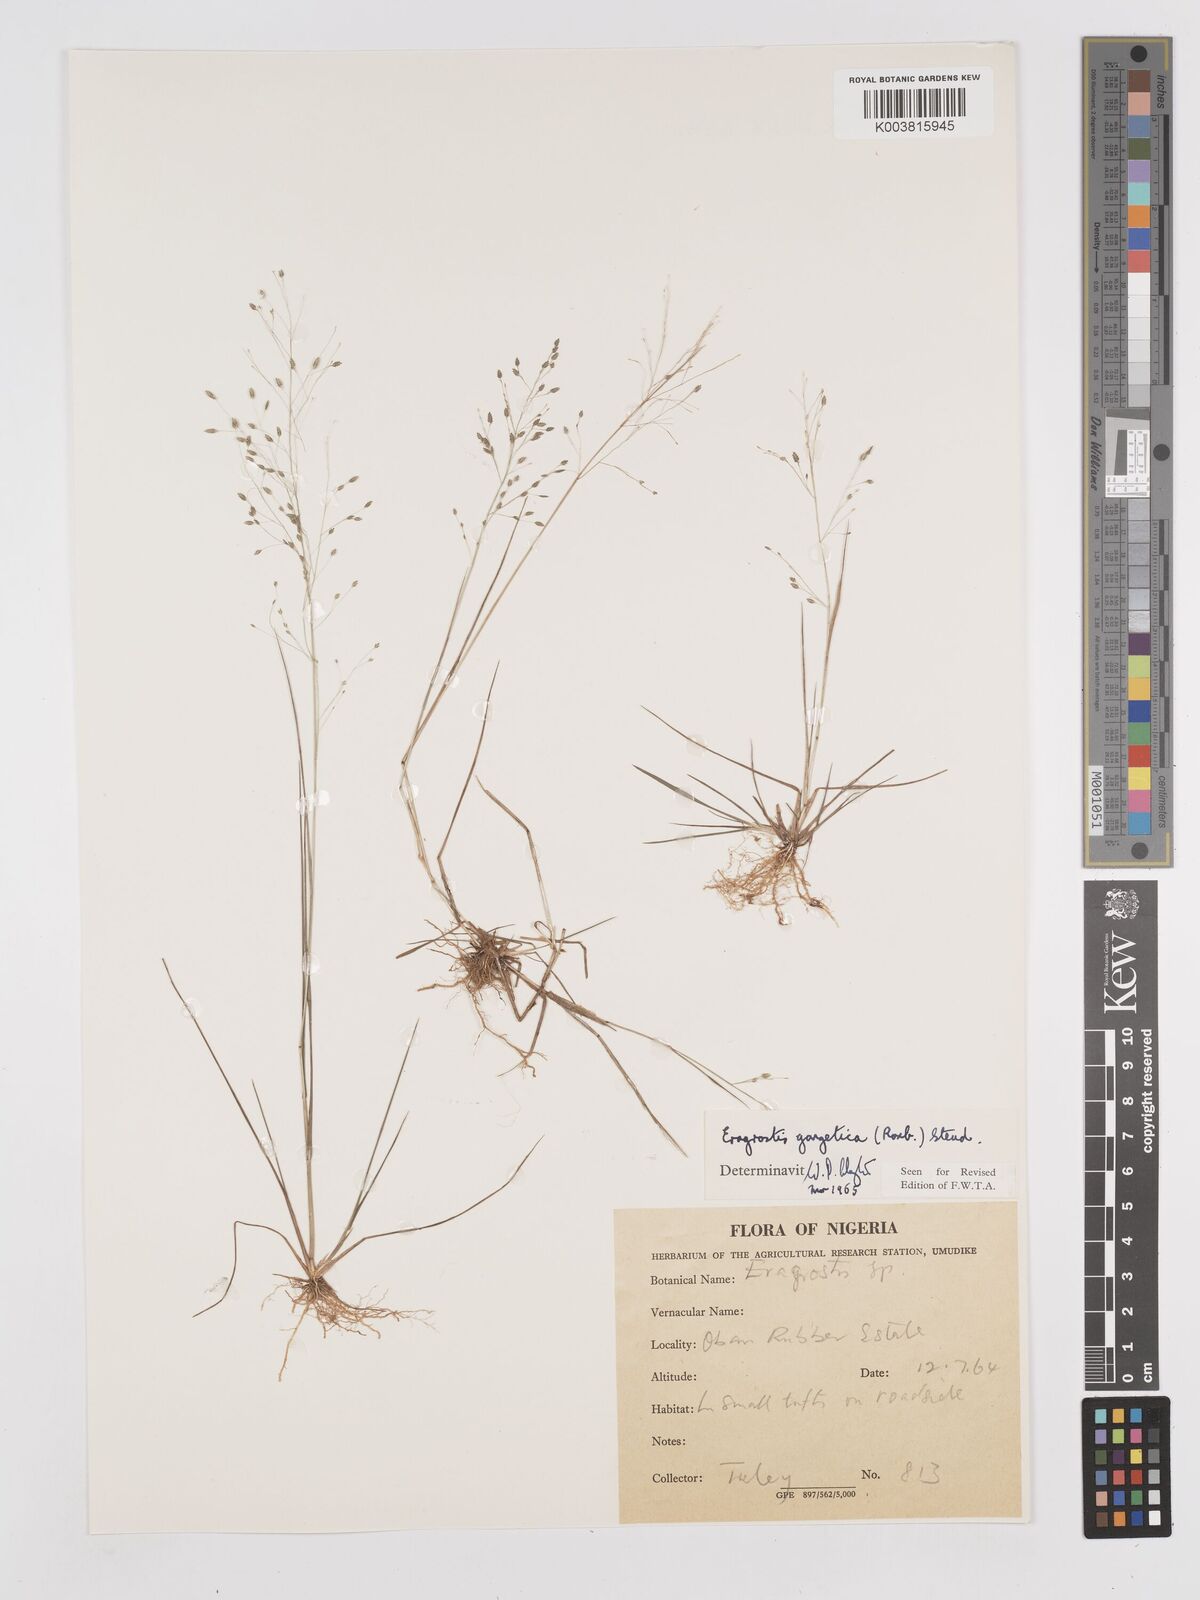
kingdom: Plantae
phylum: Tracheophyta
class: Liliopsida
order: Poales
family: Poaceae
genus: Eragrostis
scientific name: Eragrostis gangetica
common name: Slimflower lovegrass
